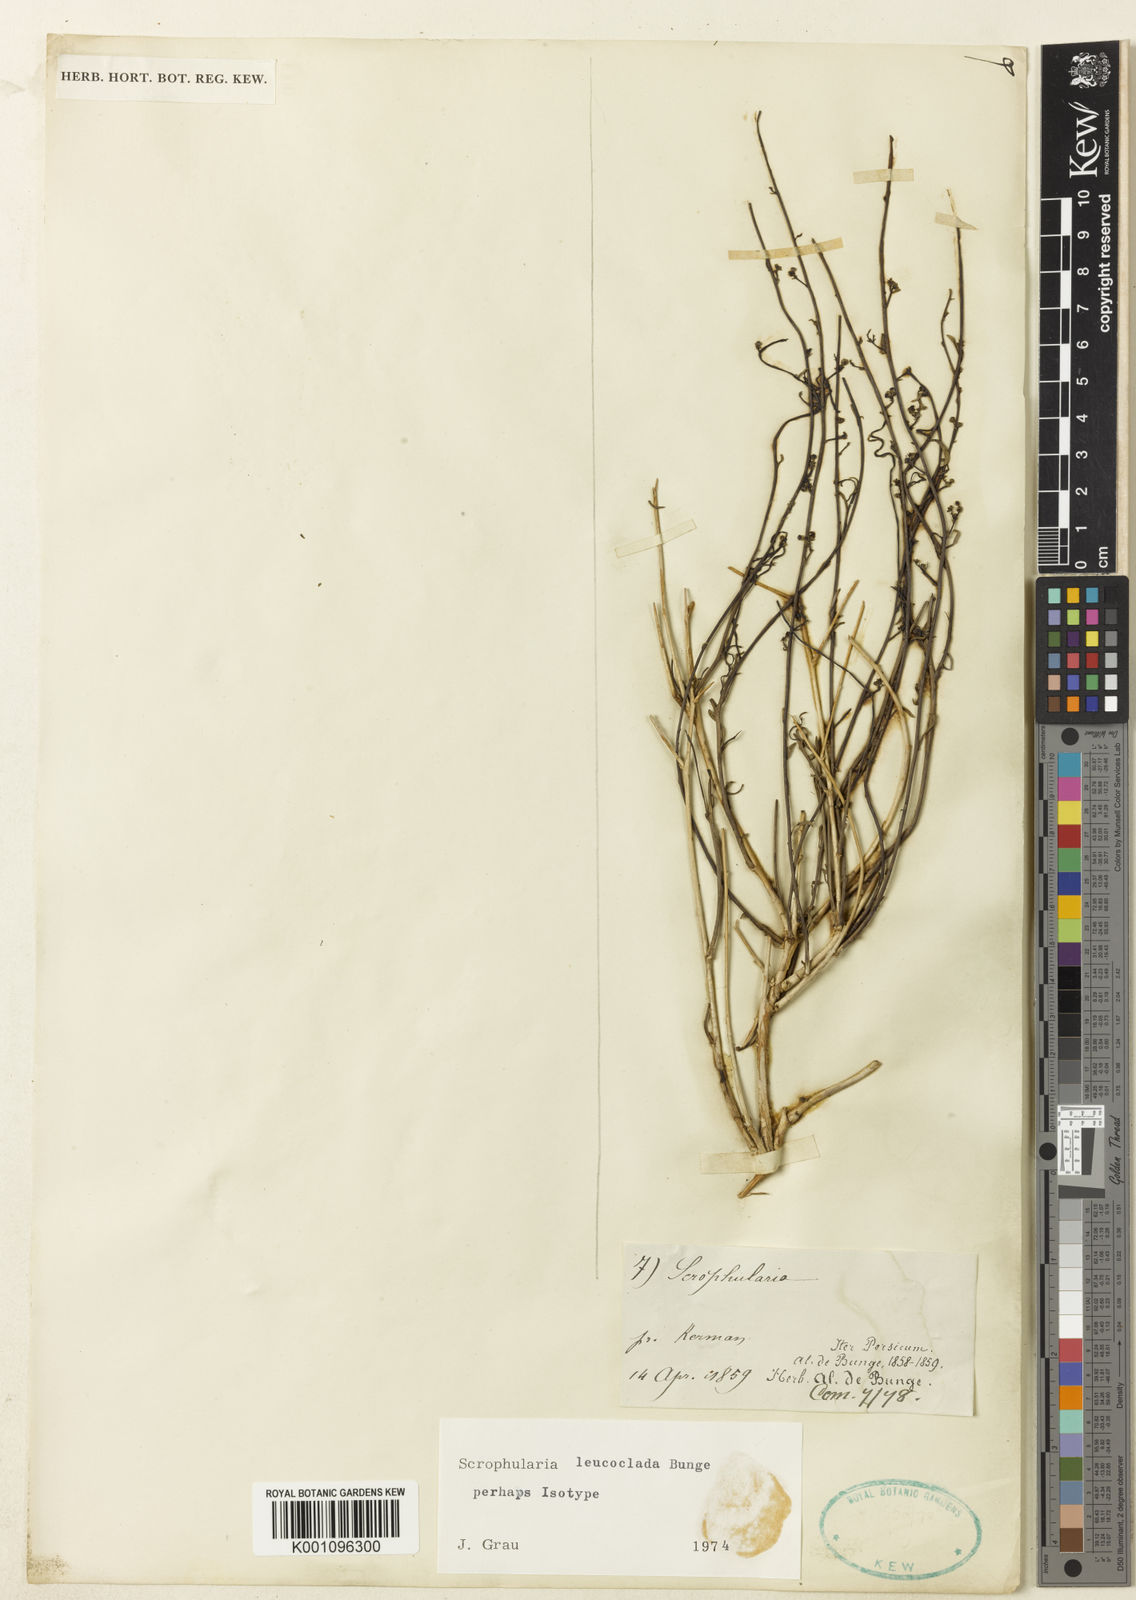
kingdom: Plantae
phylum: Tracheophyta
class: Magnoliopsida
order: Lamiales
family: Scrophulariaceae
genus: Scrophularia
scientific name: Scrophularia leucoclada
